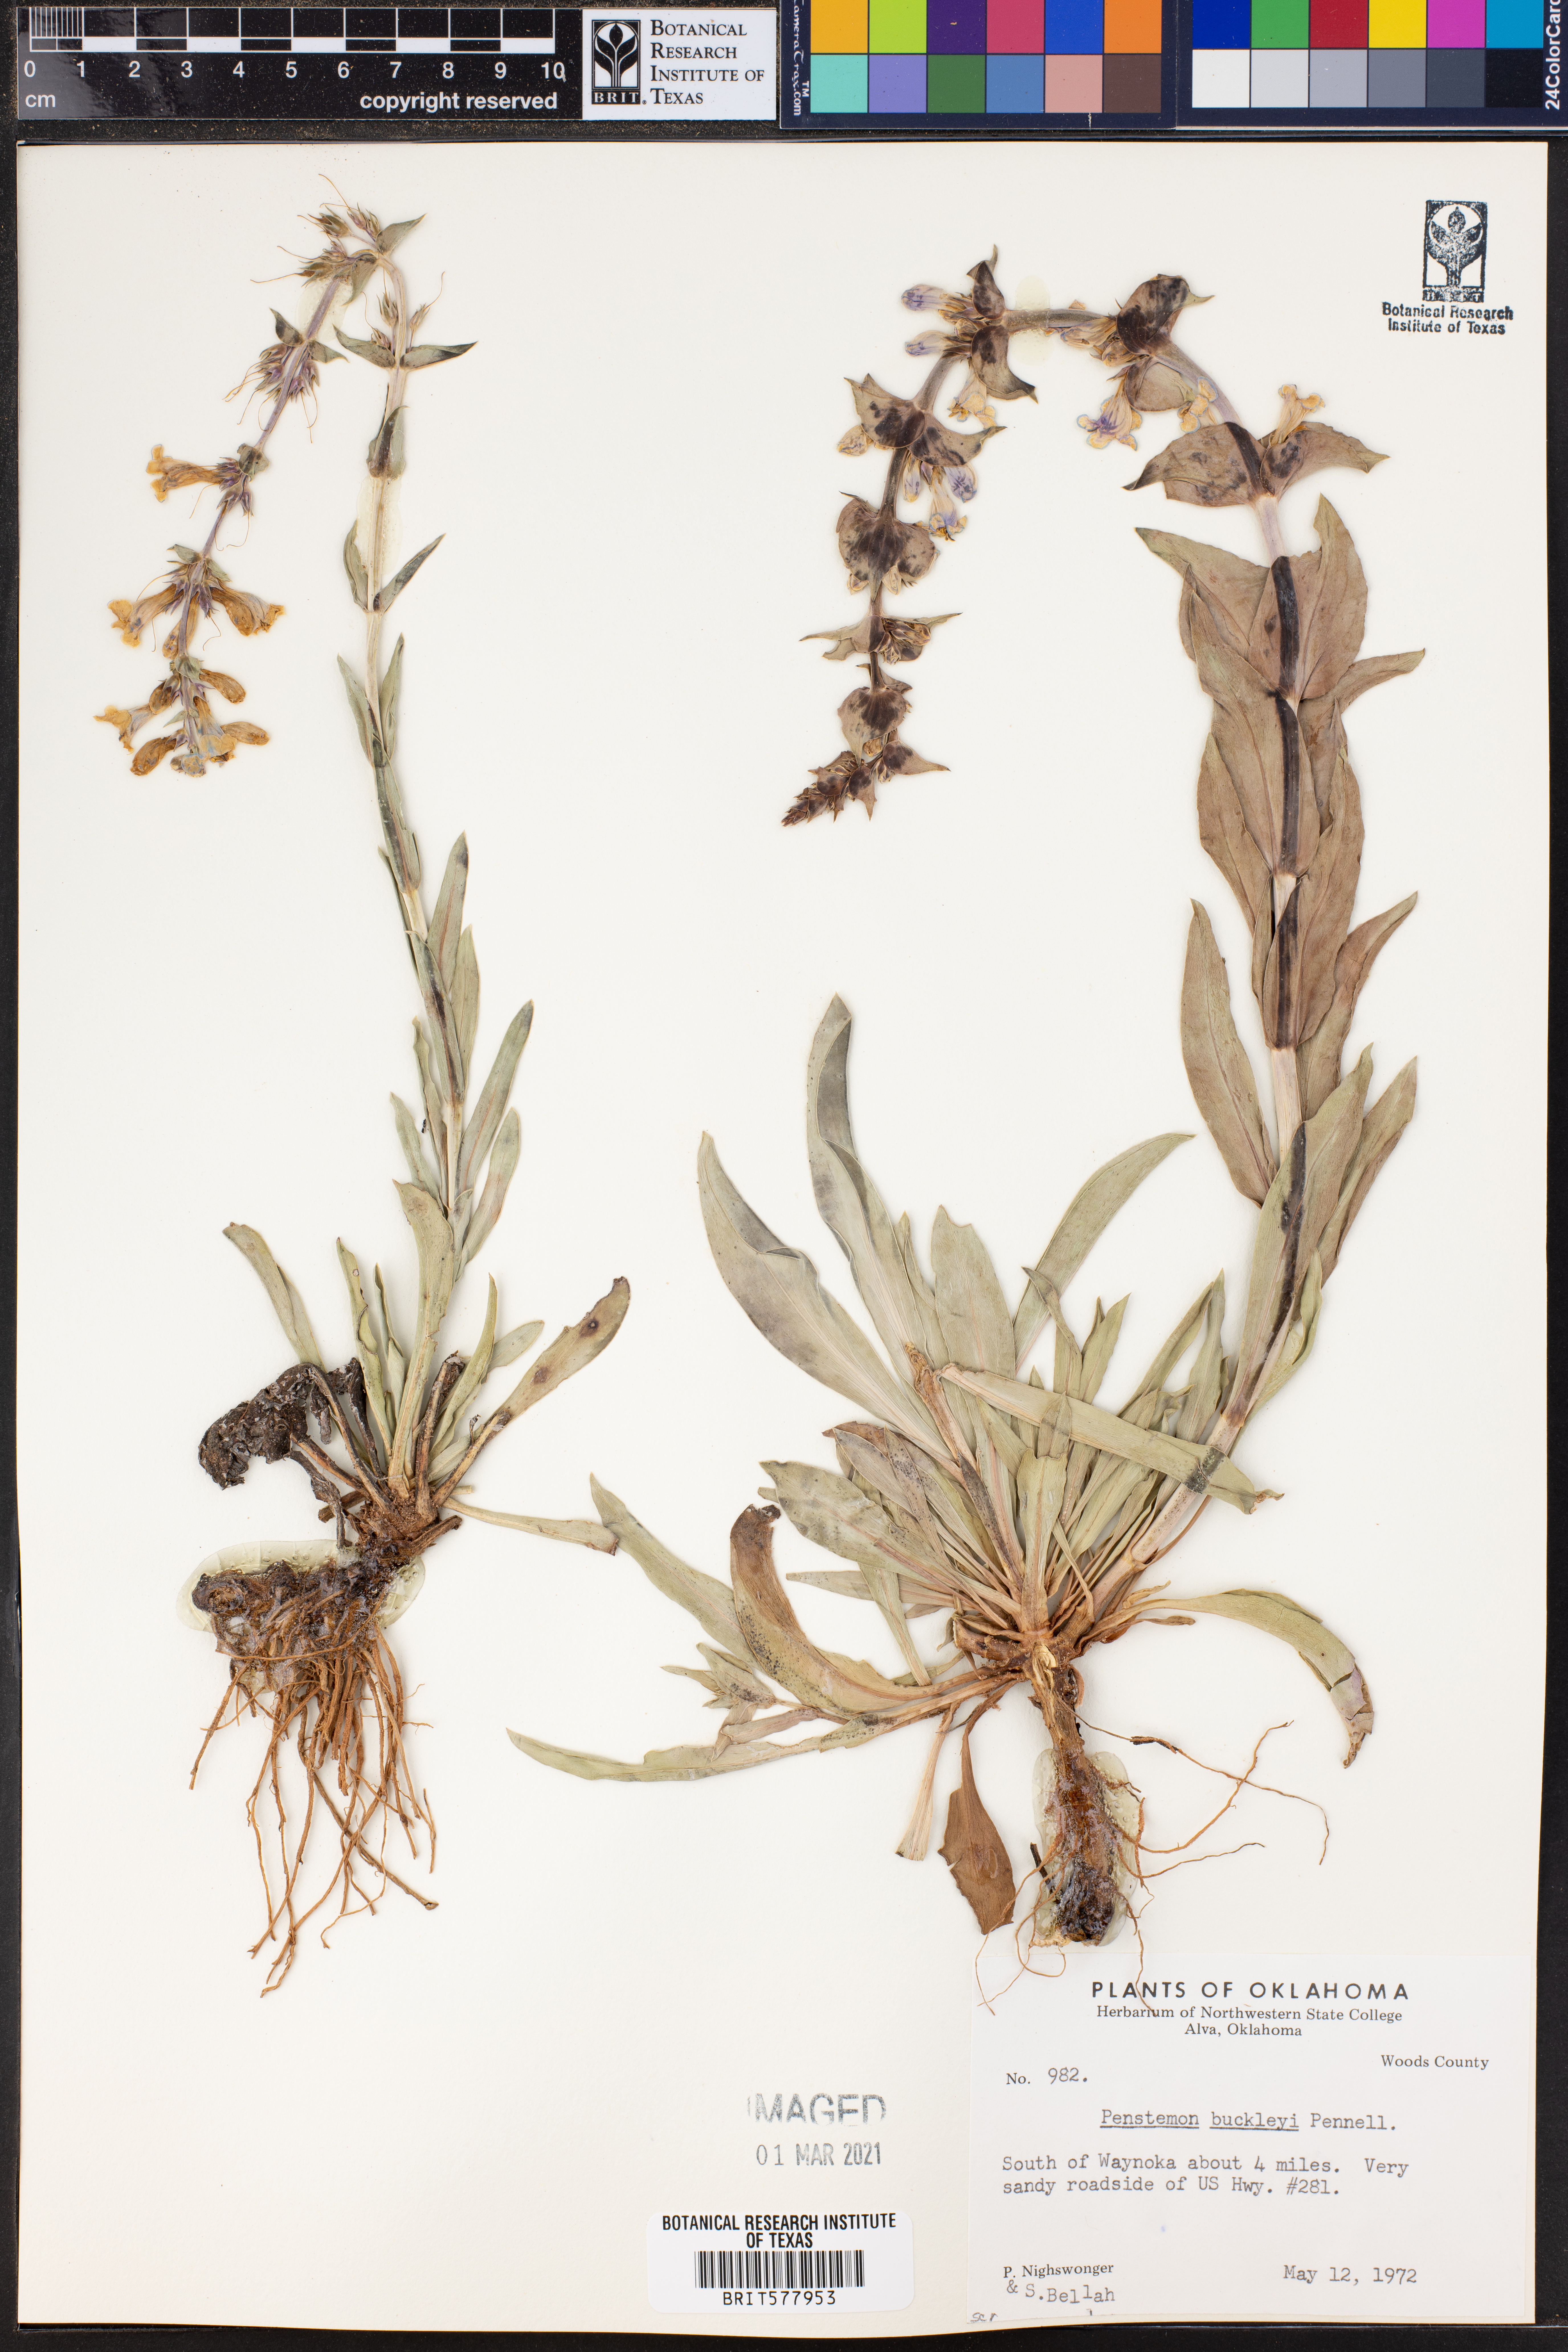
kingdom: Plantae
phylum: Tracheophyta
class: Magnoliopsida
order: Lamiales
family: Plantaginaceae
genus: Penstemon
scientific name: Penstemon buckleyi
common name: Buckley's penstemon
